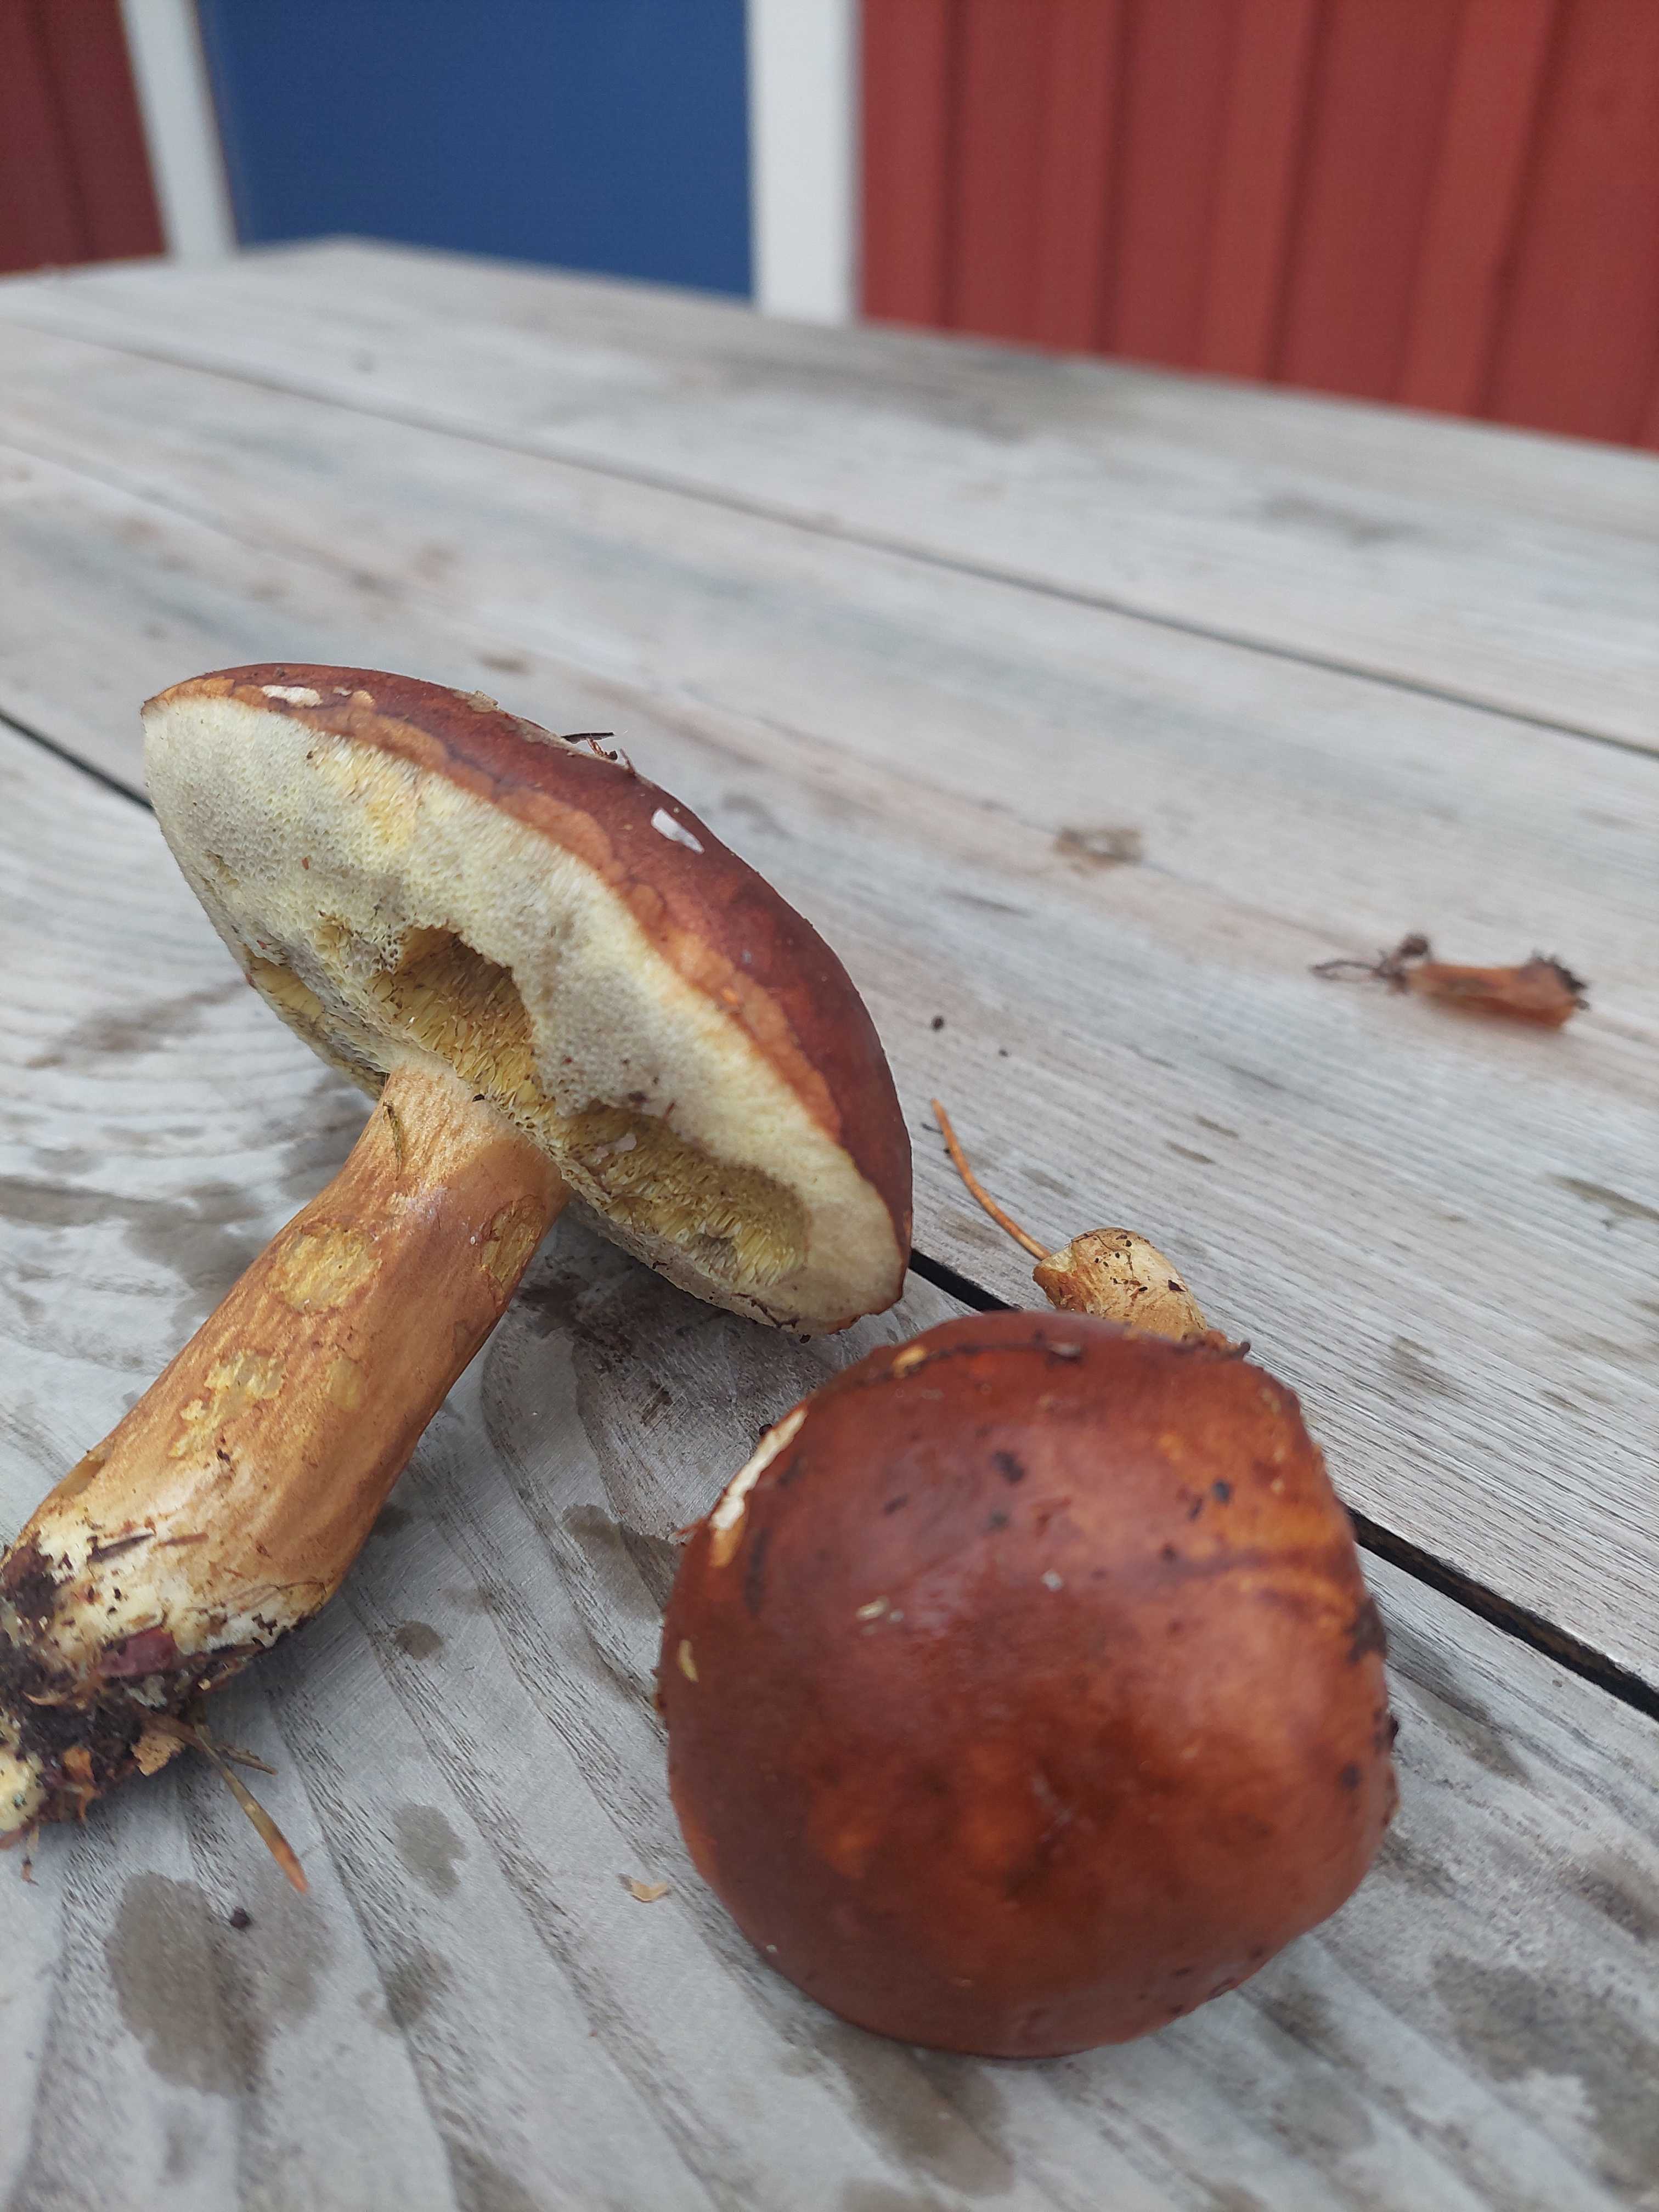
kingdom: Fungi
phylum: Basidiomycota
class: Agaricomycetes
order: Boletales
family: Boletaceae
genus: Imleria
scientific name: Imleria badia
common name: brunstokket rørhat
